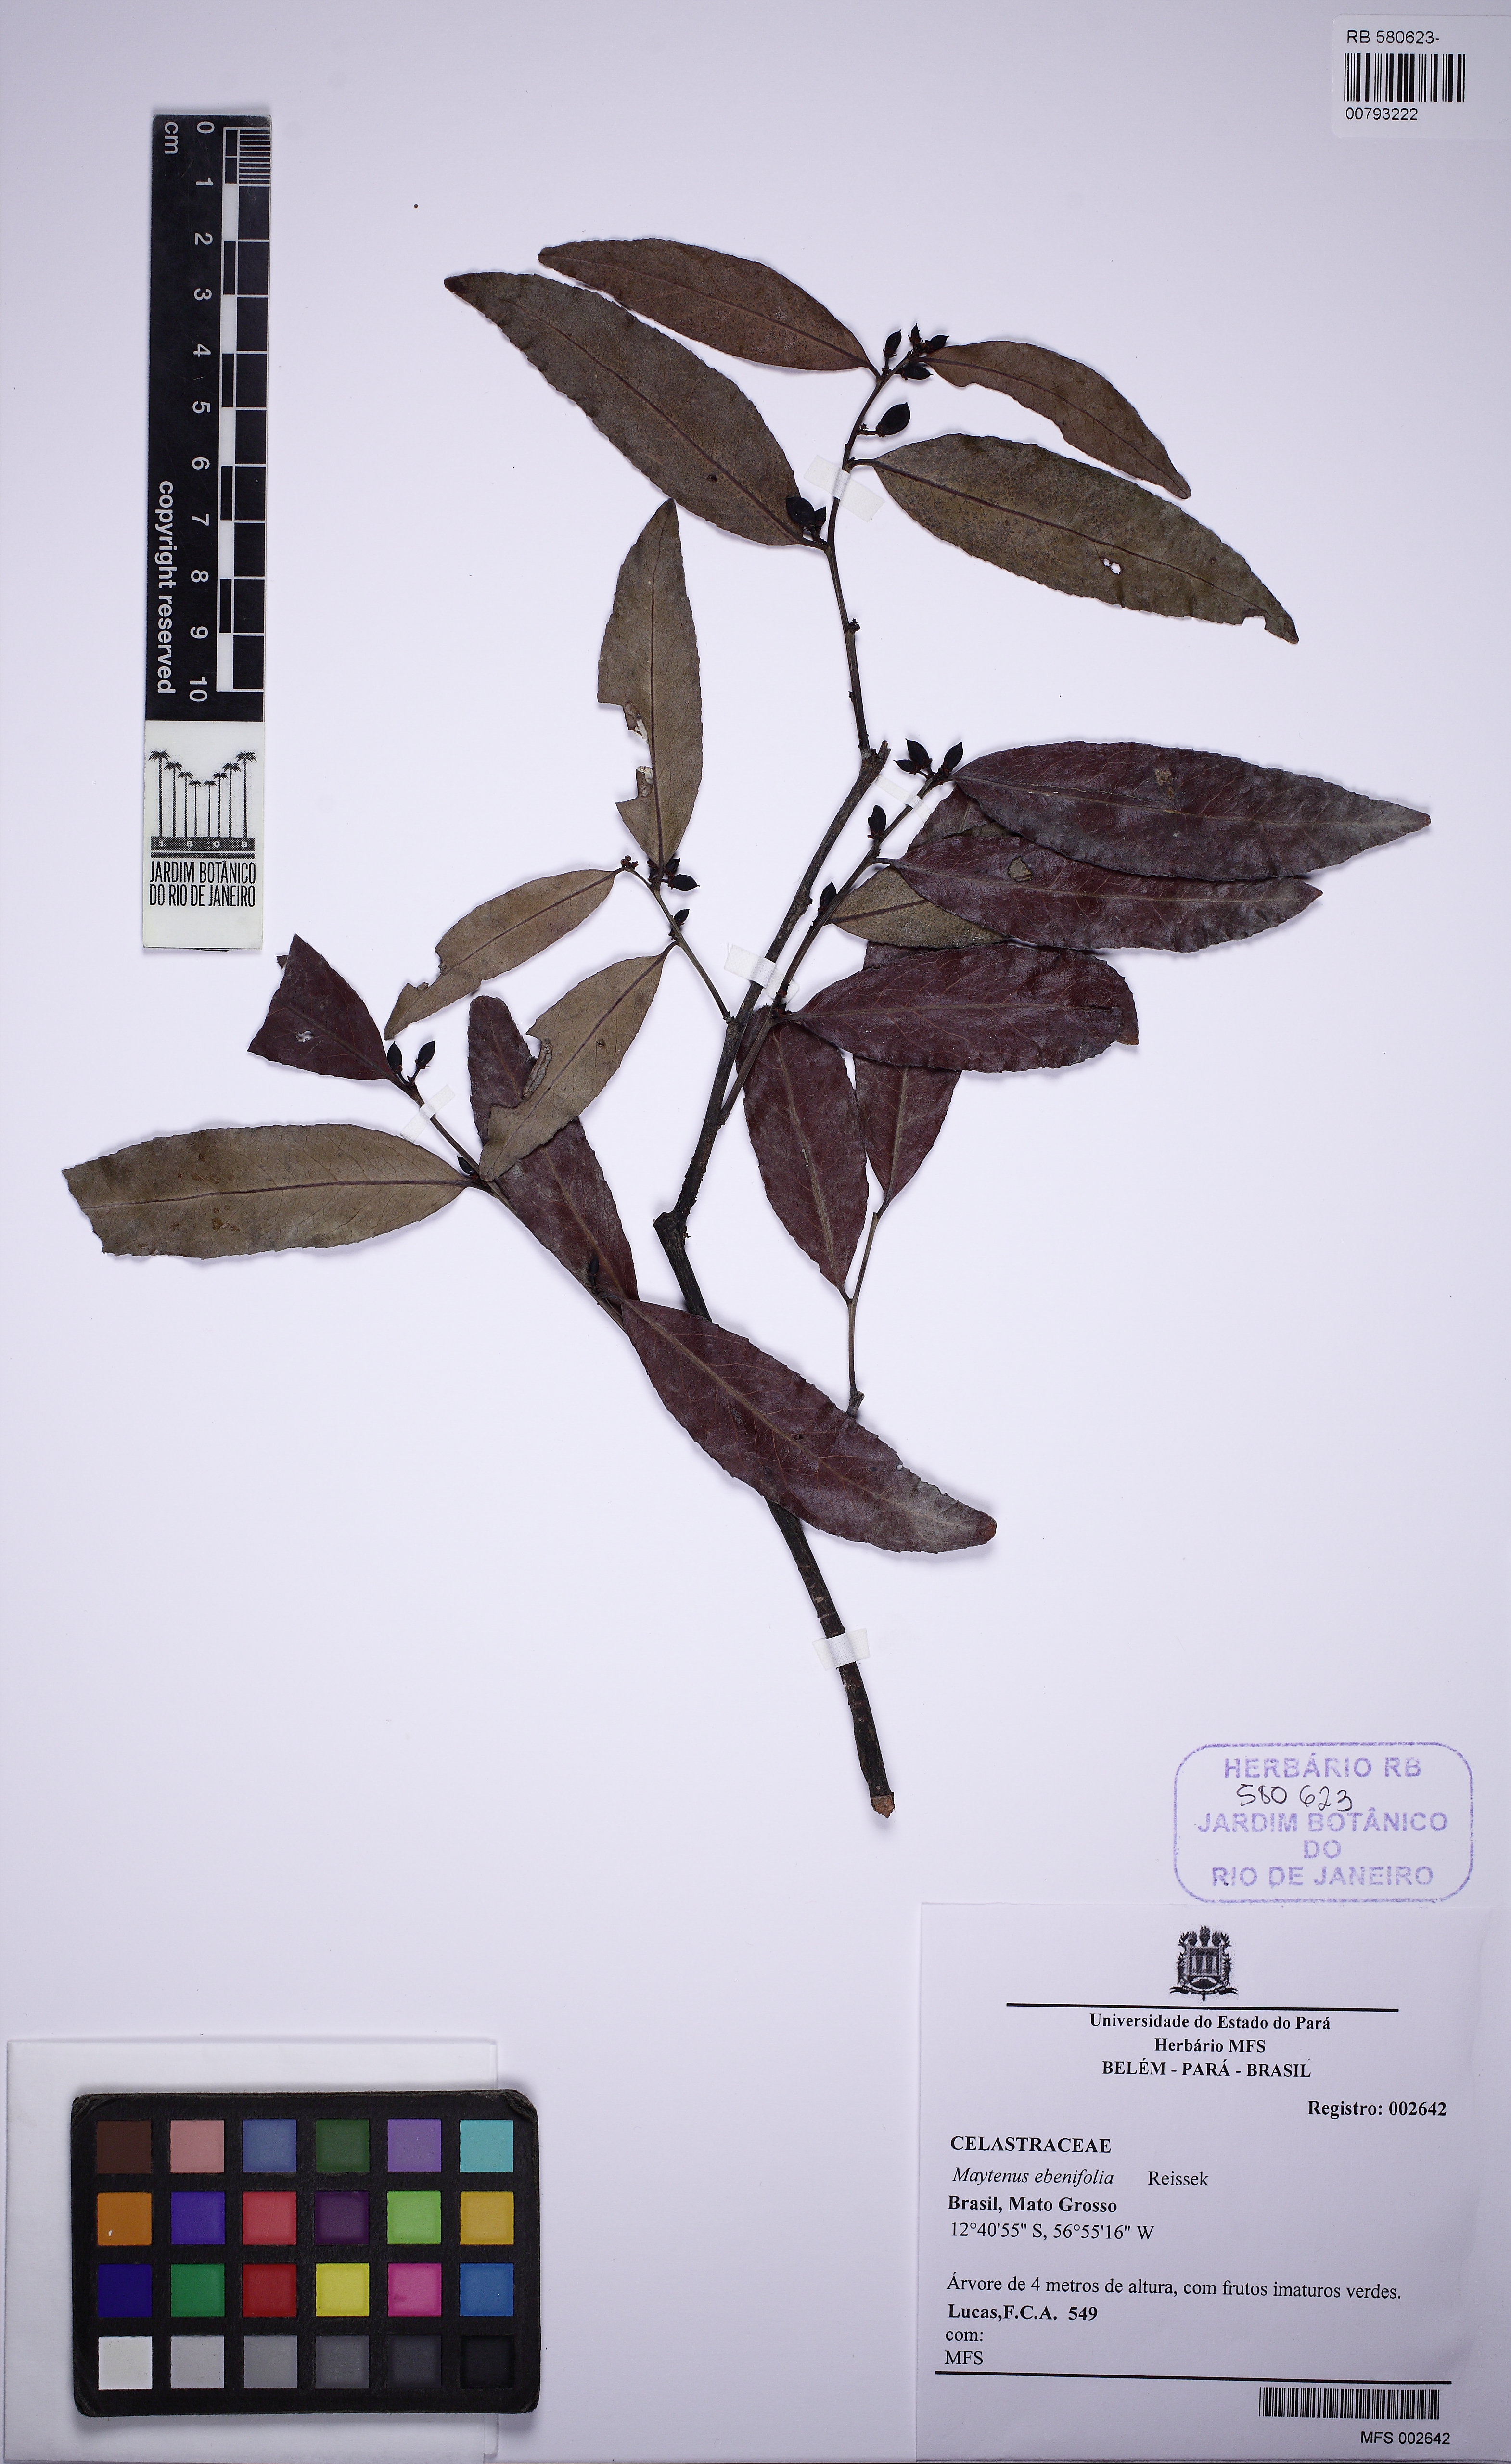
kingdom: Plantae
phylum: Tracheophyta
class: Magnoliopsida
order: Celastrales
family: Celastraceae
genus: Monteverdia
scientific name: Monteverdia guyanensis
